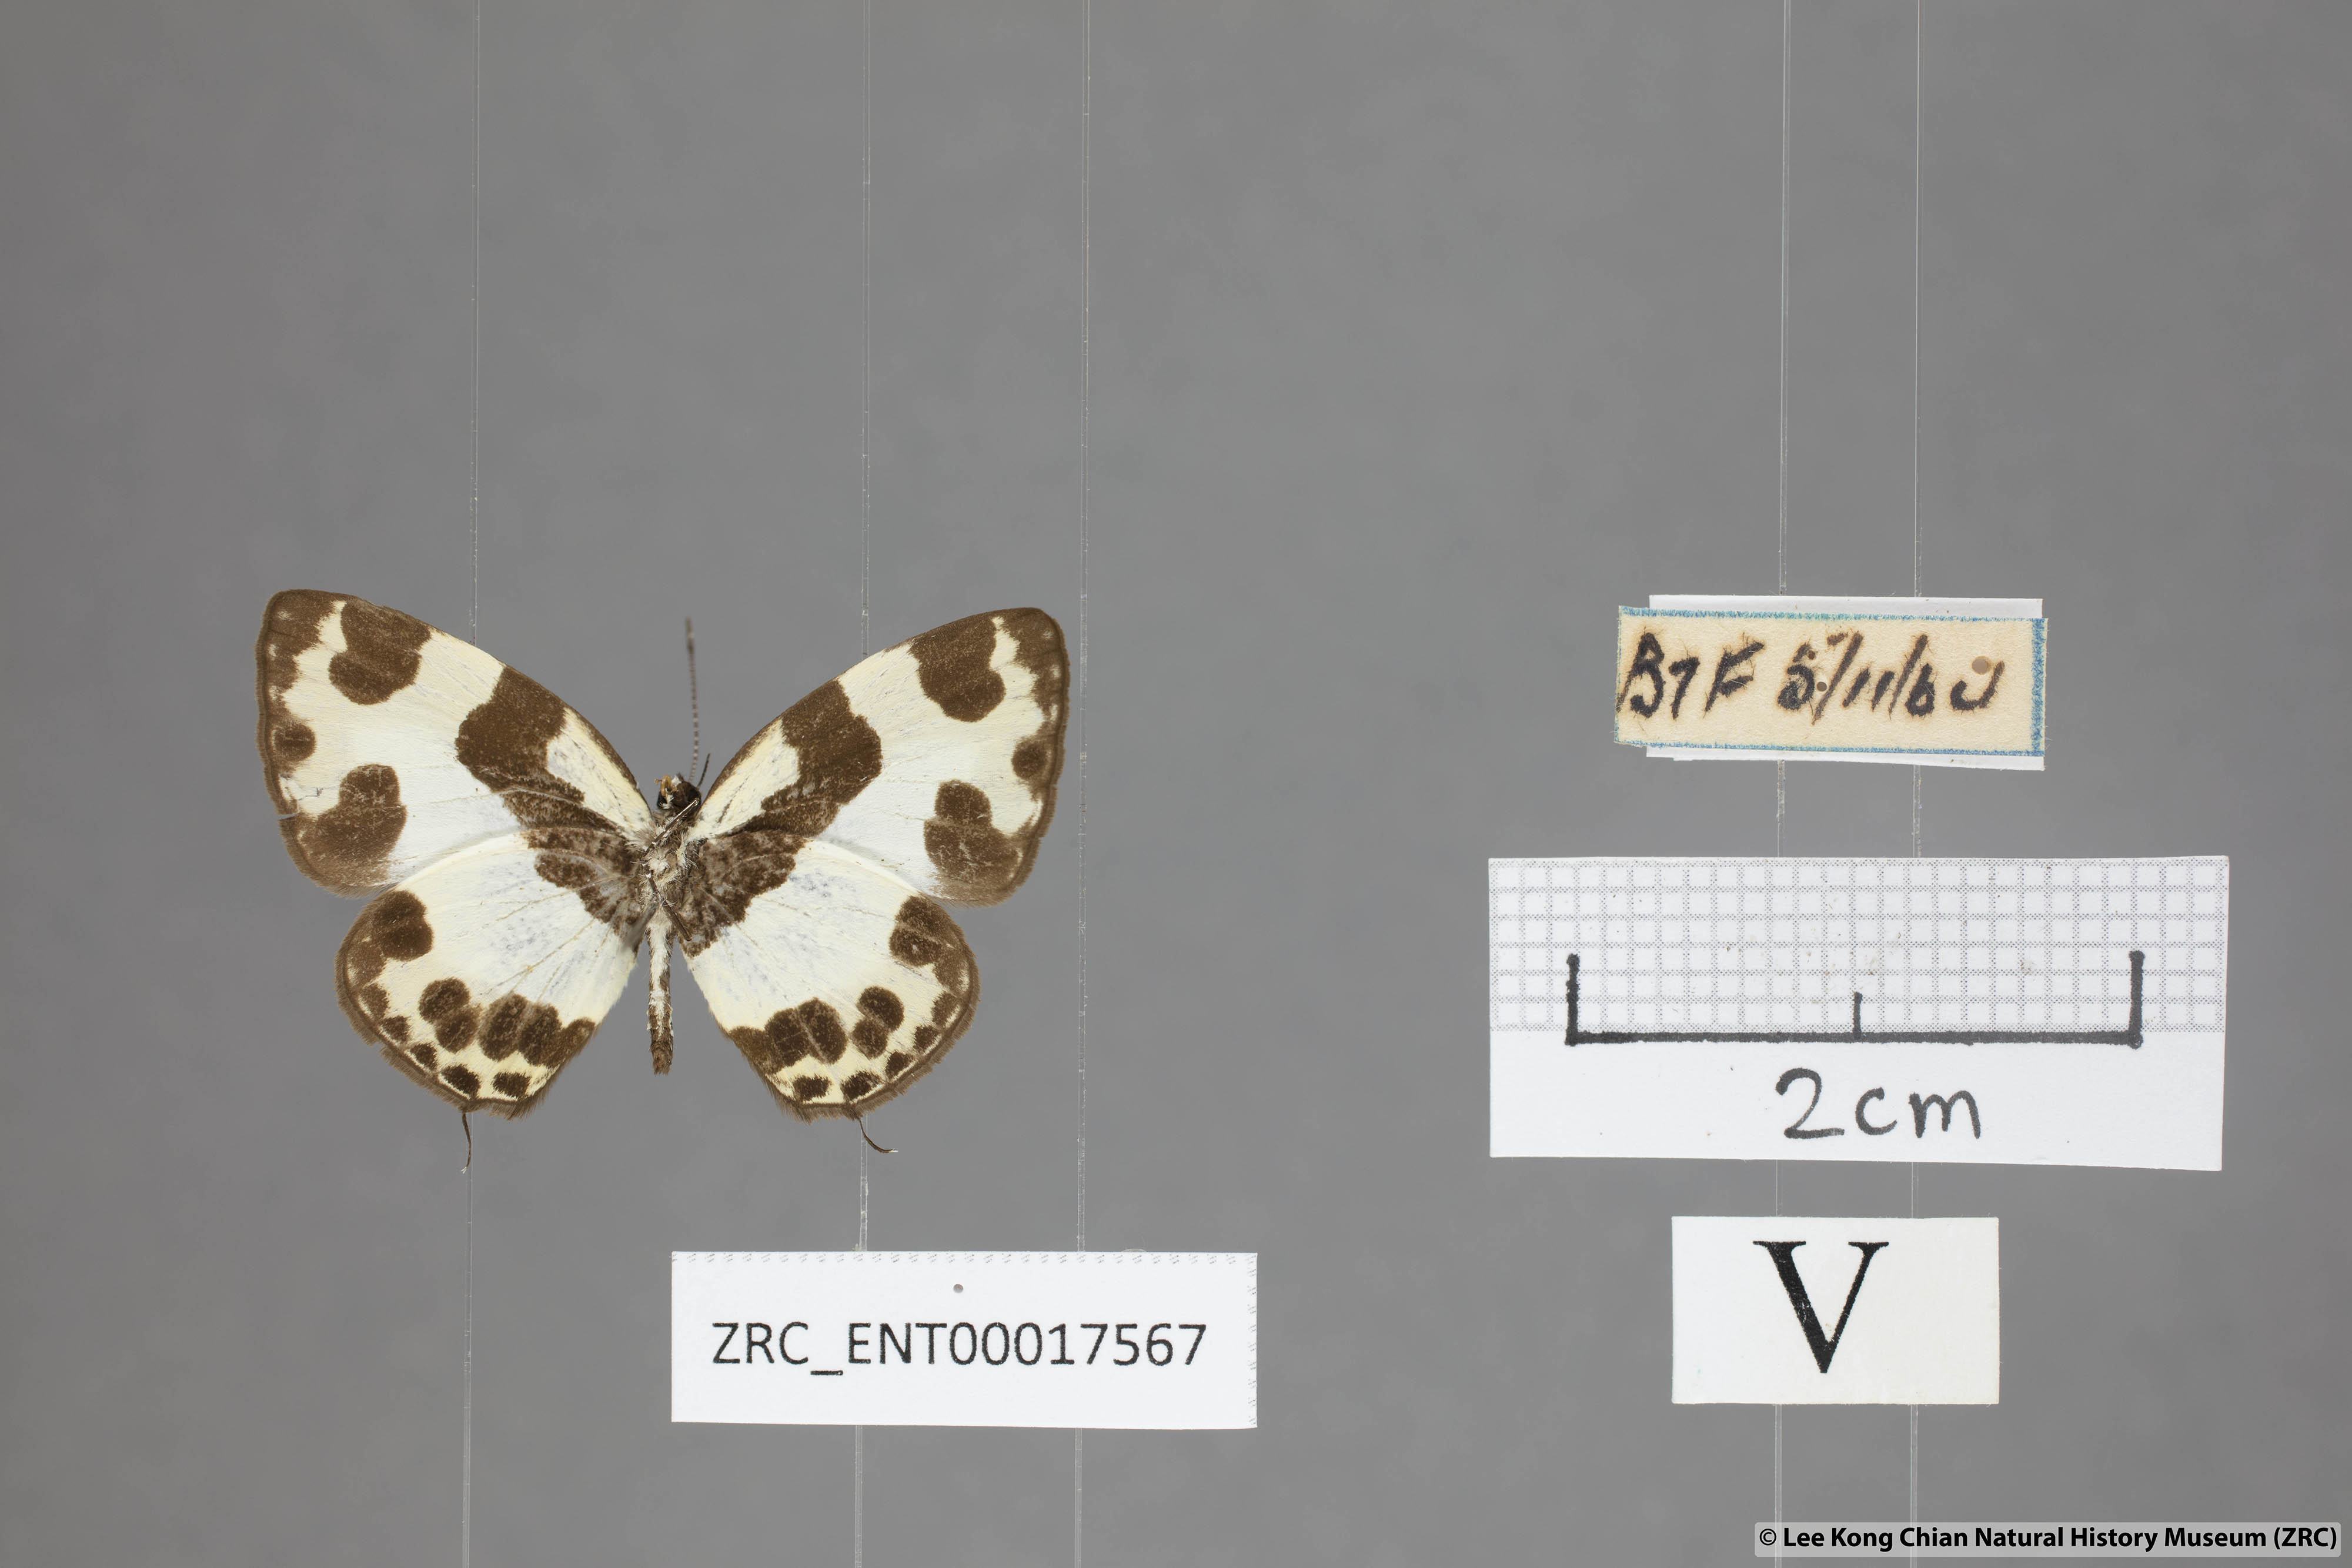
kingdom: Animalia
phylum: Arthropoda
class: Insecta
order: Lepidoptera
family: Lycaenidae
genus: Caleta
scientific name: Caleta elna
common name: Elbowed pierrot
